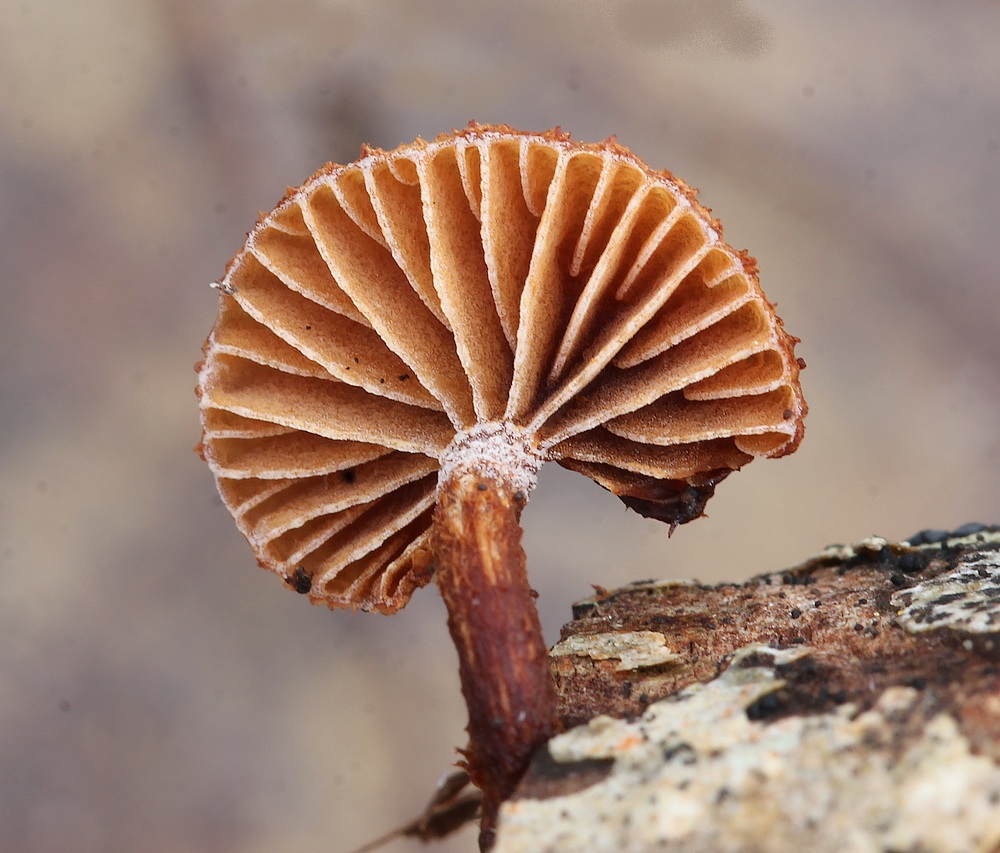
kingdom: Fungi
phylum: Basidiomycota
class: Agaricomycetes
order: Agaricales
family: Tubariaceae
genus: Phaeomarasmius
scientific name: Phaeomarasmius erinaceus
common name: spidsskælhat
